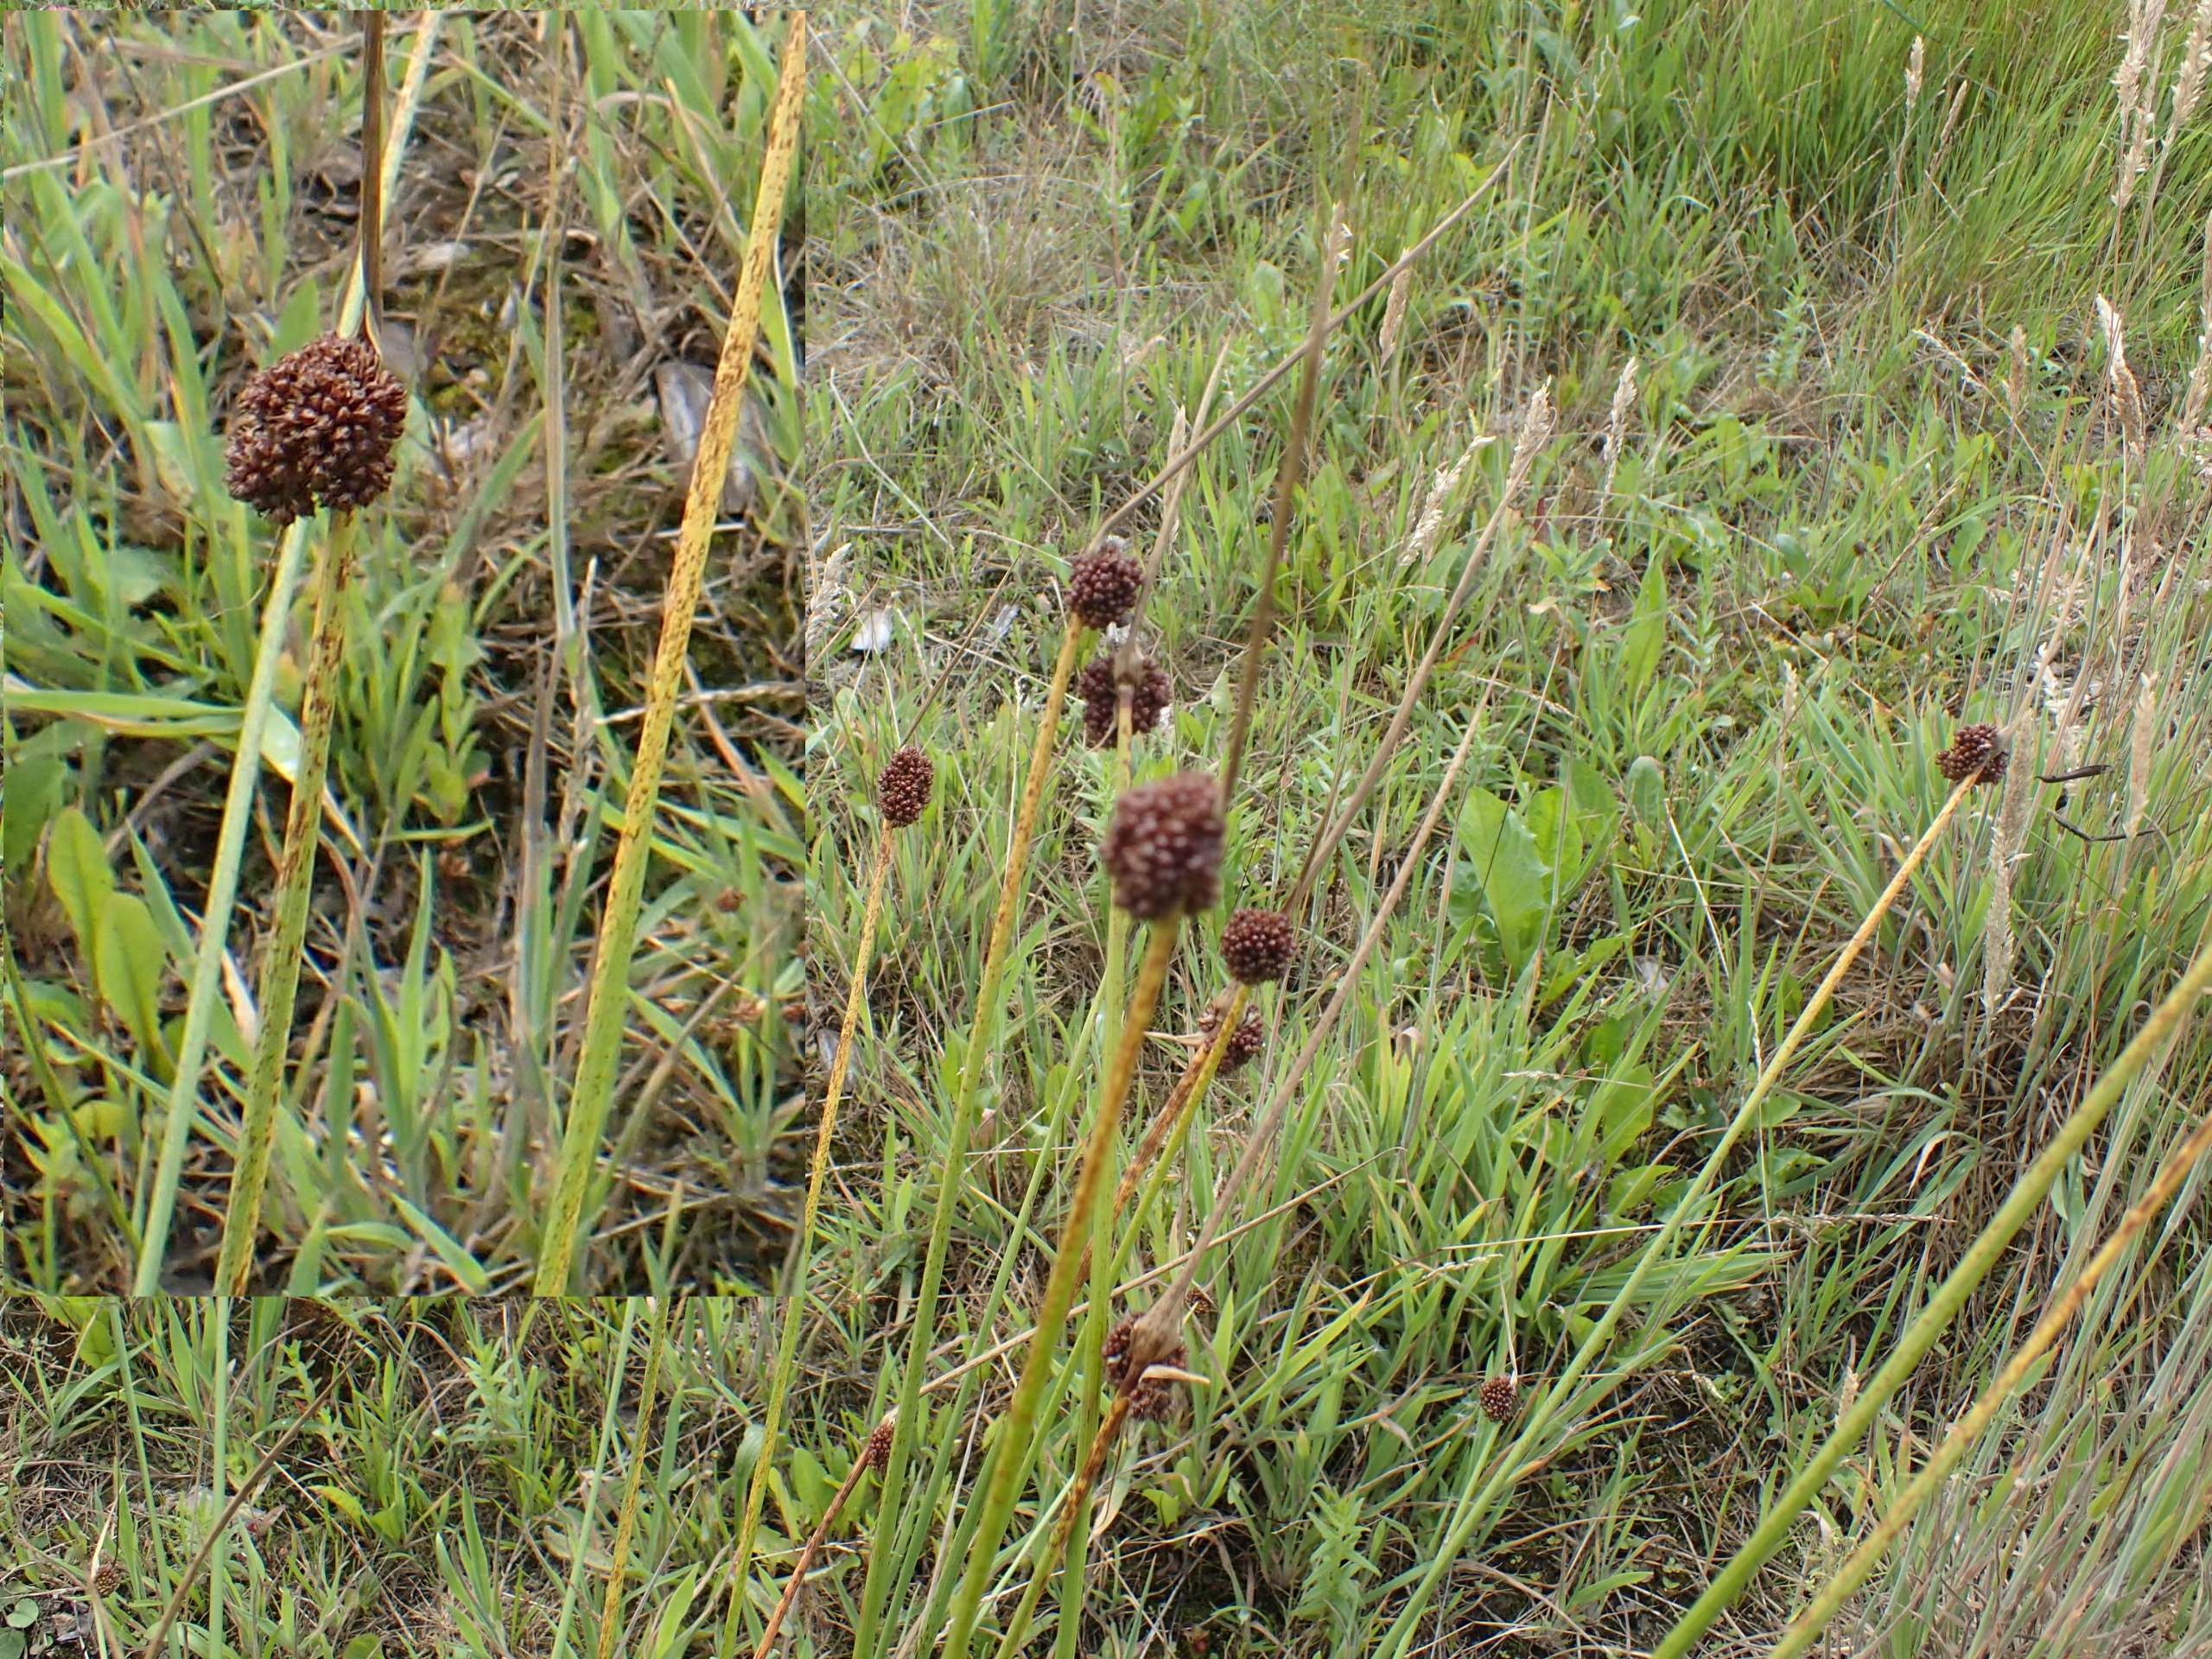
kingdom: Plantae
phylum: Tracheophyta
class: Liliopsida
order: Poales
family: Juncaceae
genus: Juncus
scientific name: Juncus conglomeratus
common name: Knop-siv
